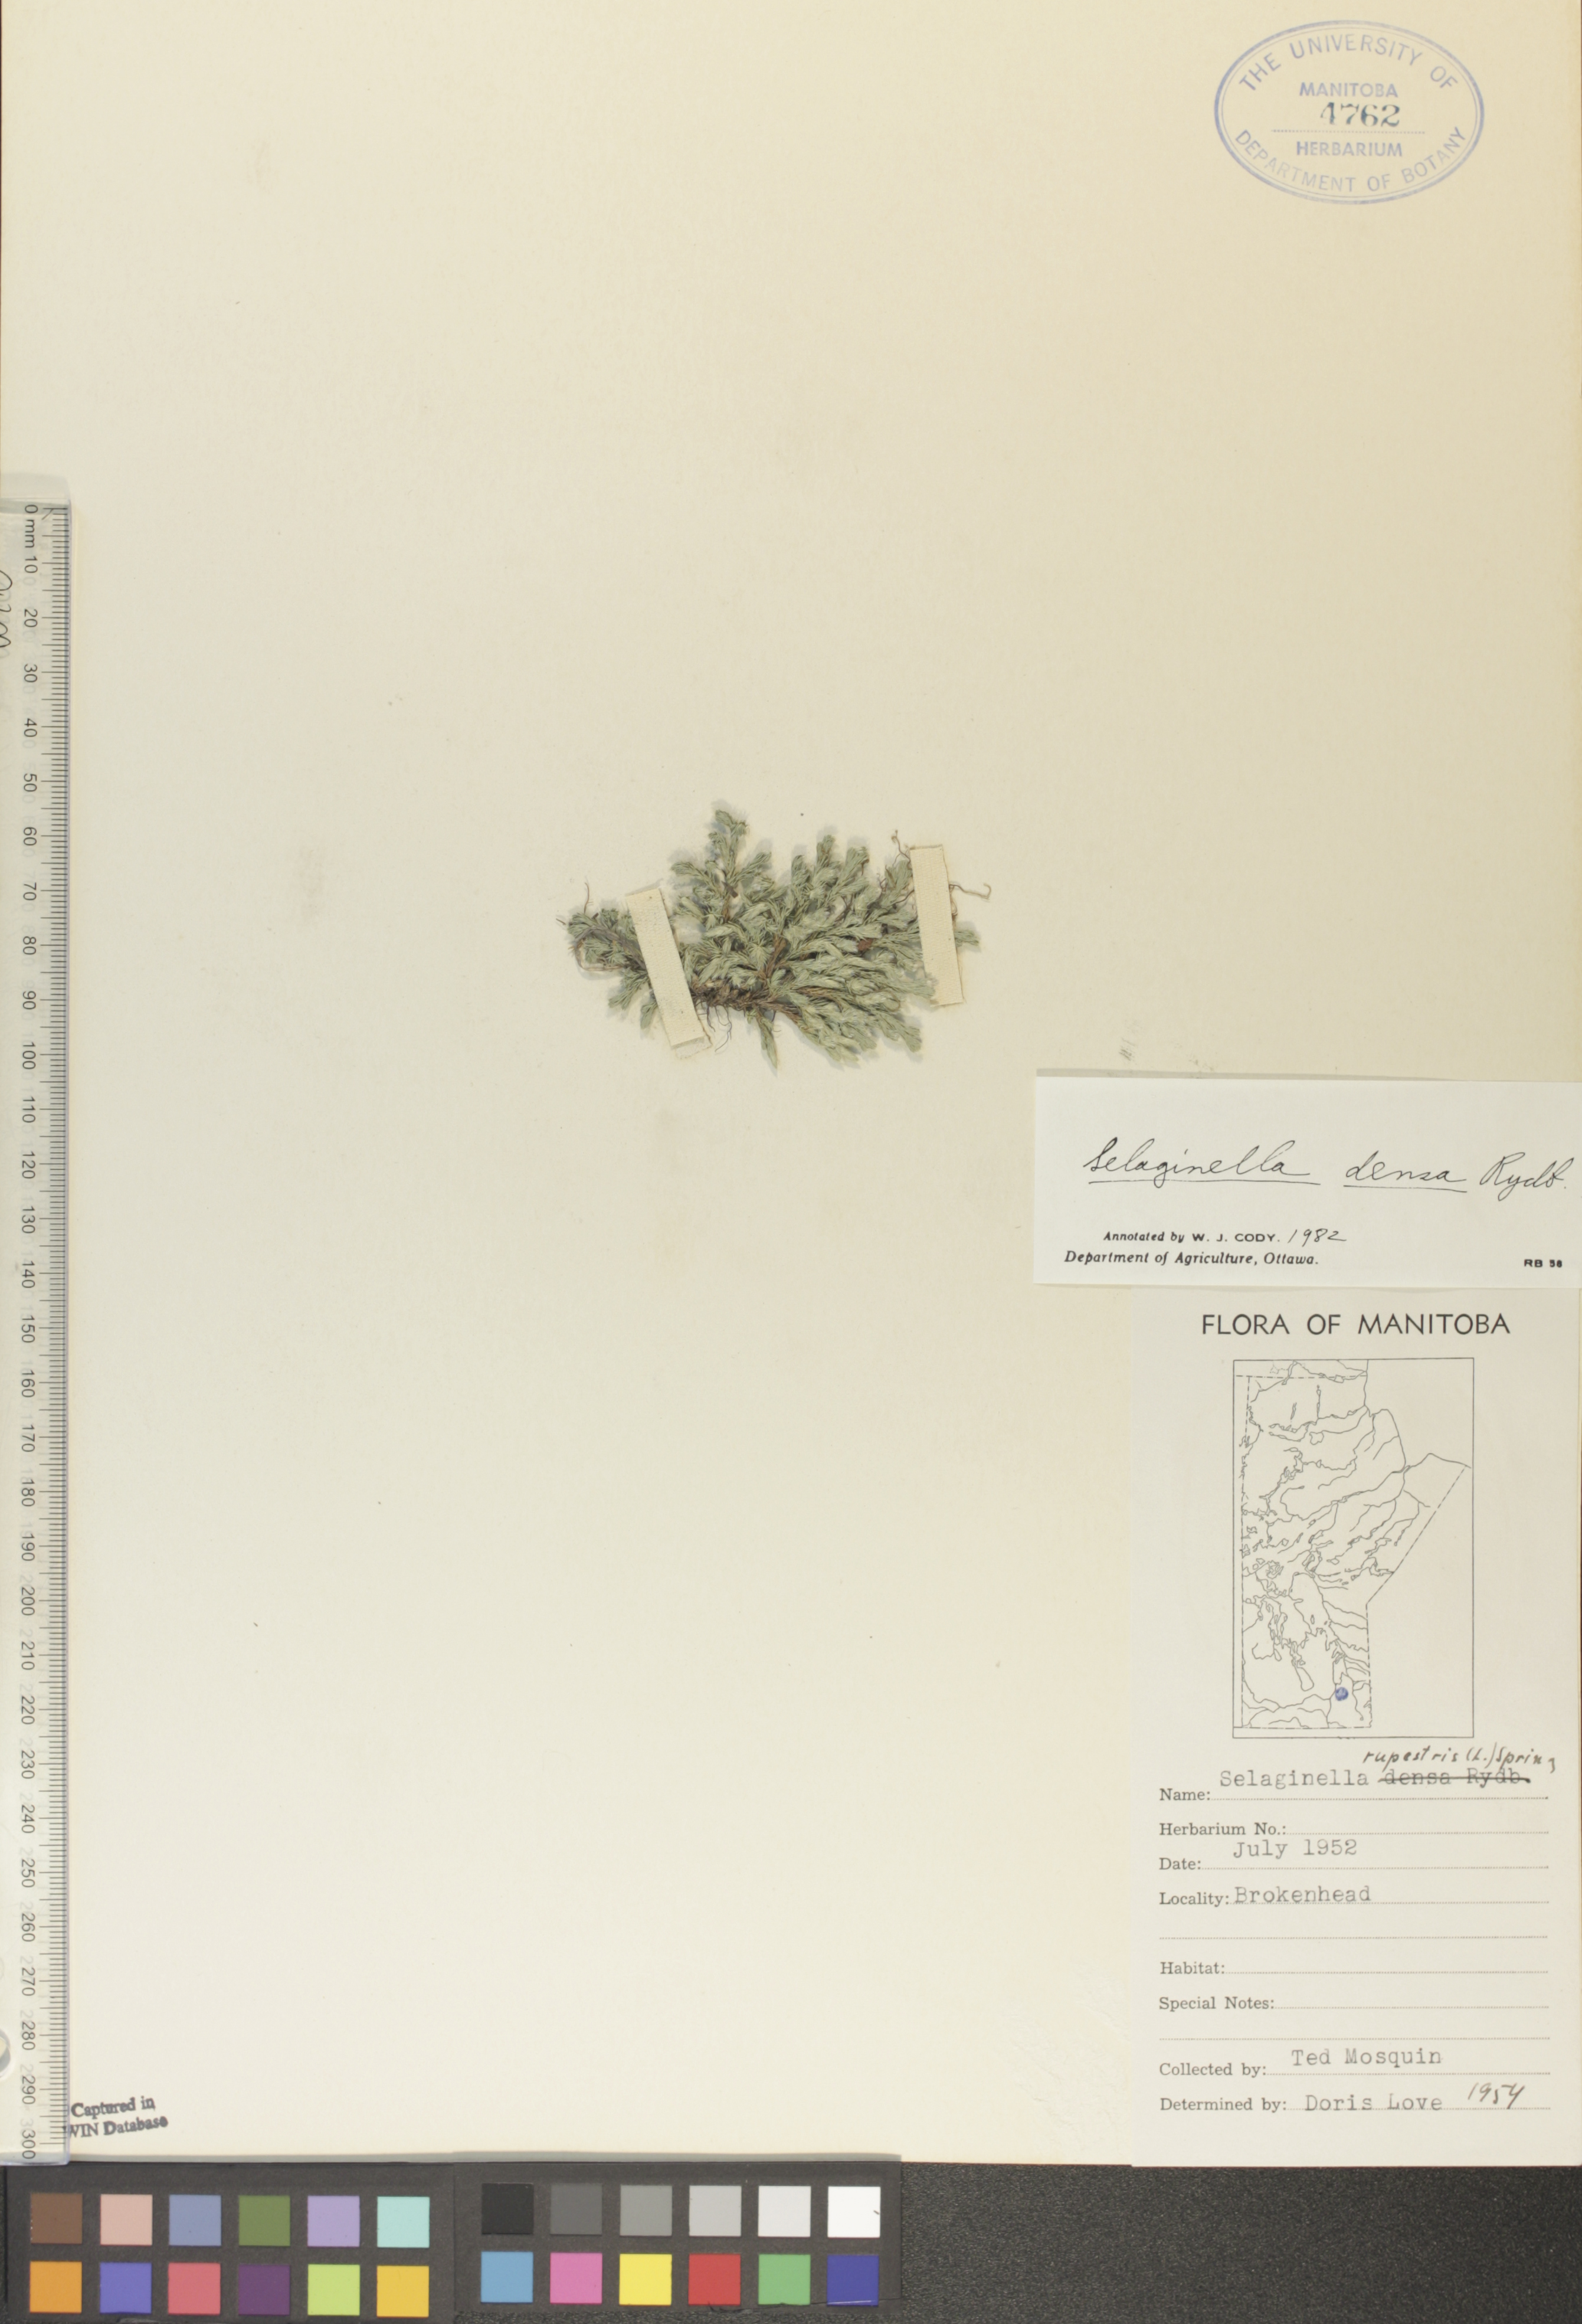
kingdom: Plantae
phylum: Tracheophyta
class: Lycopodiopsida
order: Selaginellales
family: Selaginellaceae
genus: Selaginella
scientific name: Selaginella densa
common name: Mountain spike-moss
